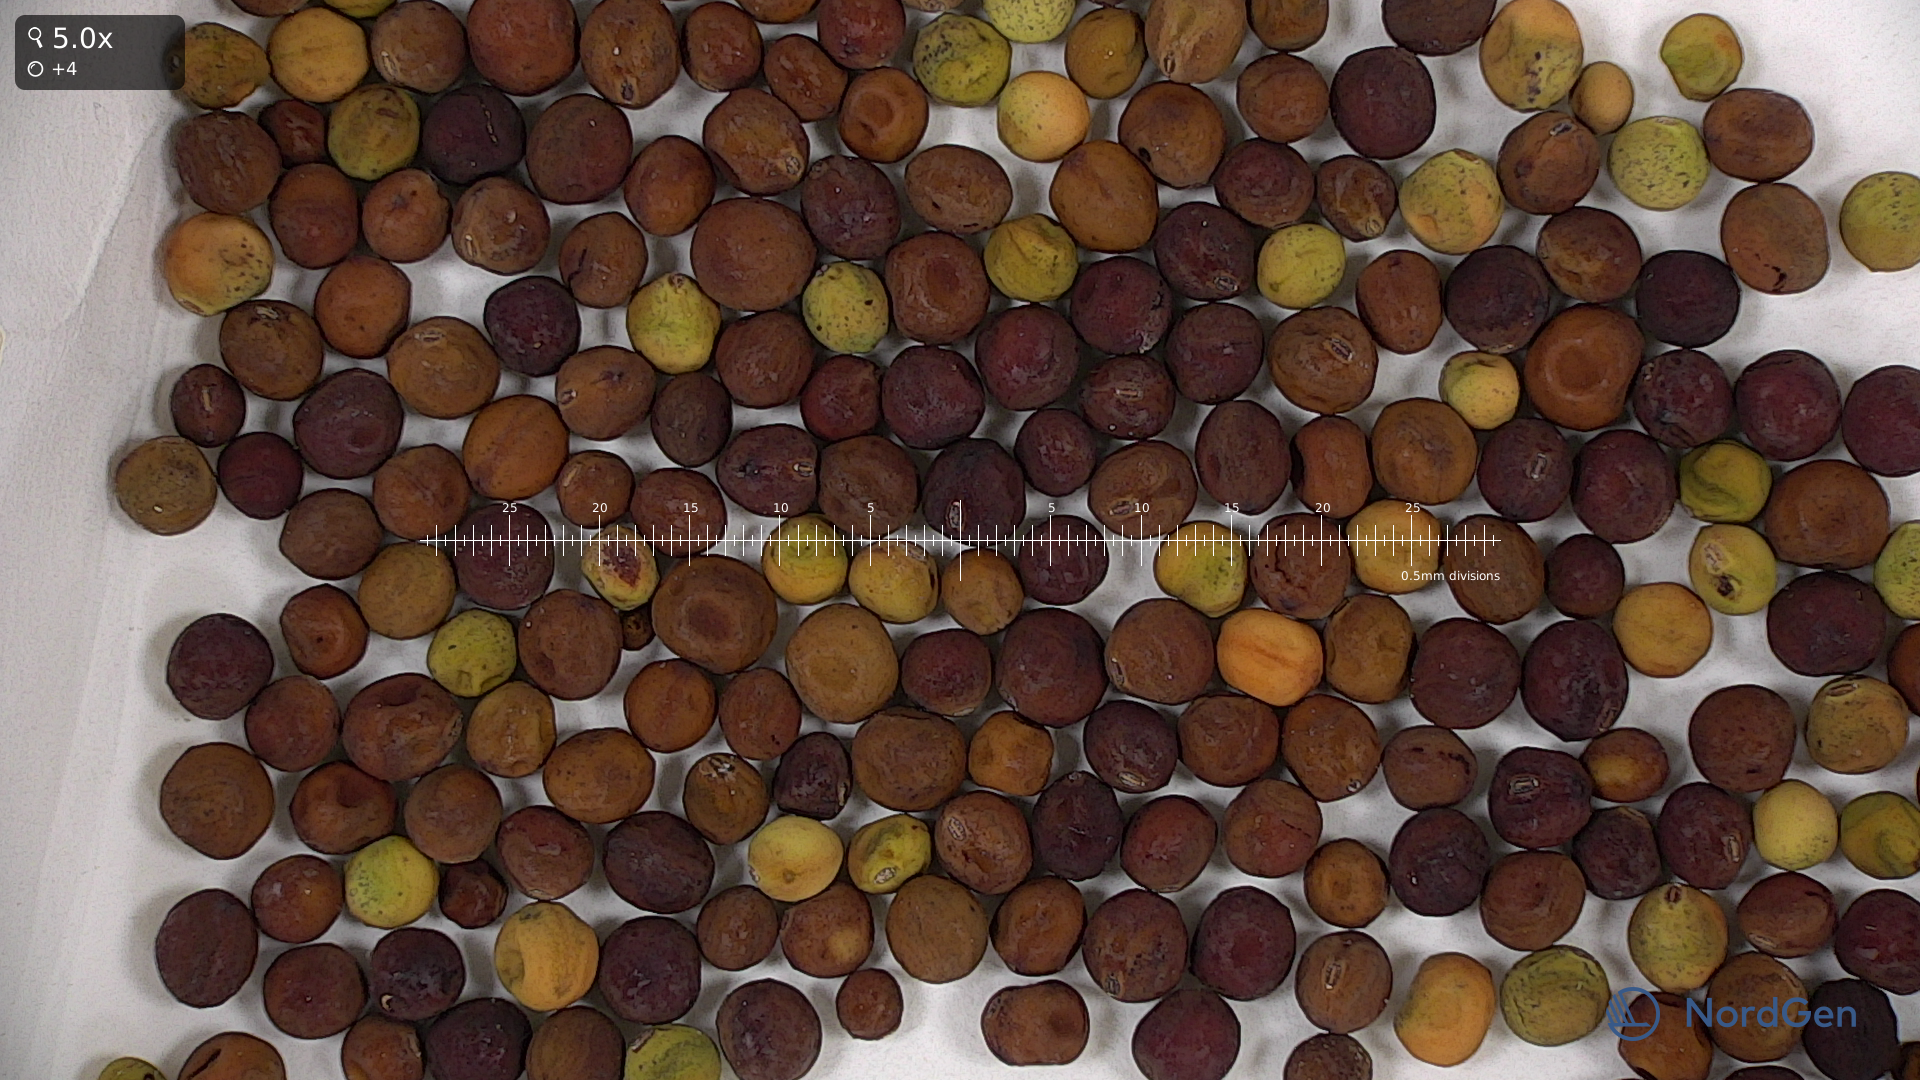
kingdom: Plantae
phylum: Tracheophyta
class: Magnoliopsida
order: Fabales
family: Fabaceae
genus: Lathyrus
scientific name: Lathyrus oleraceus
